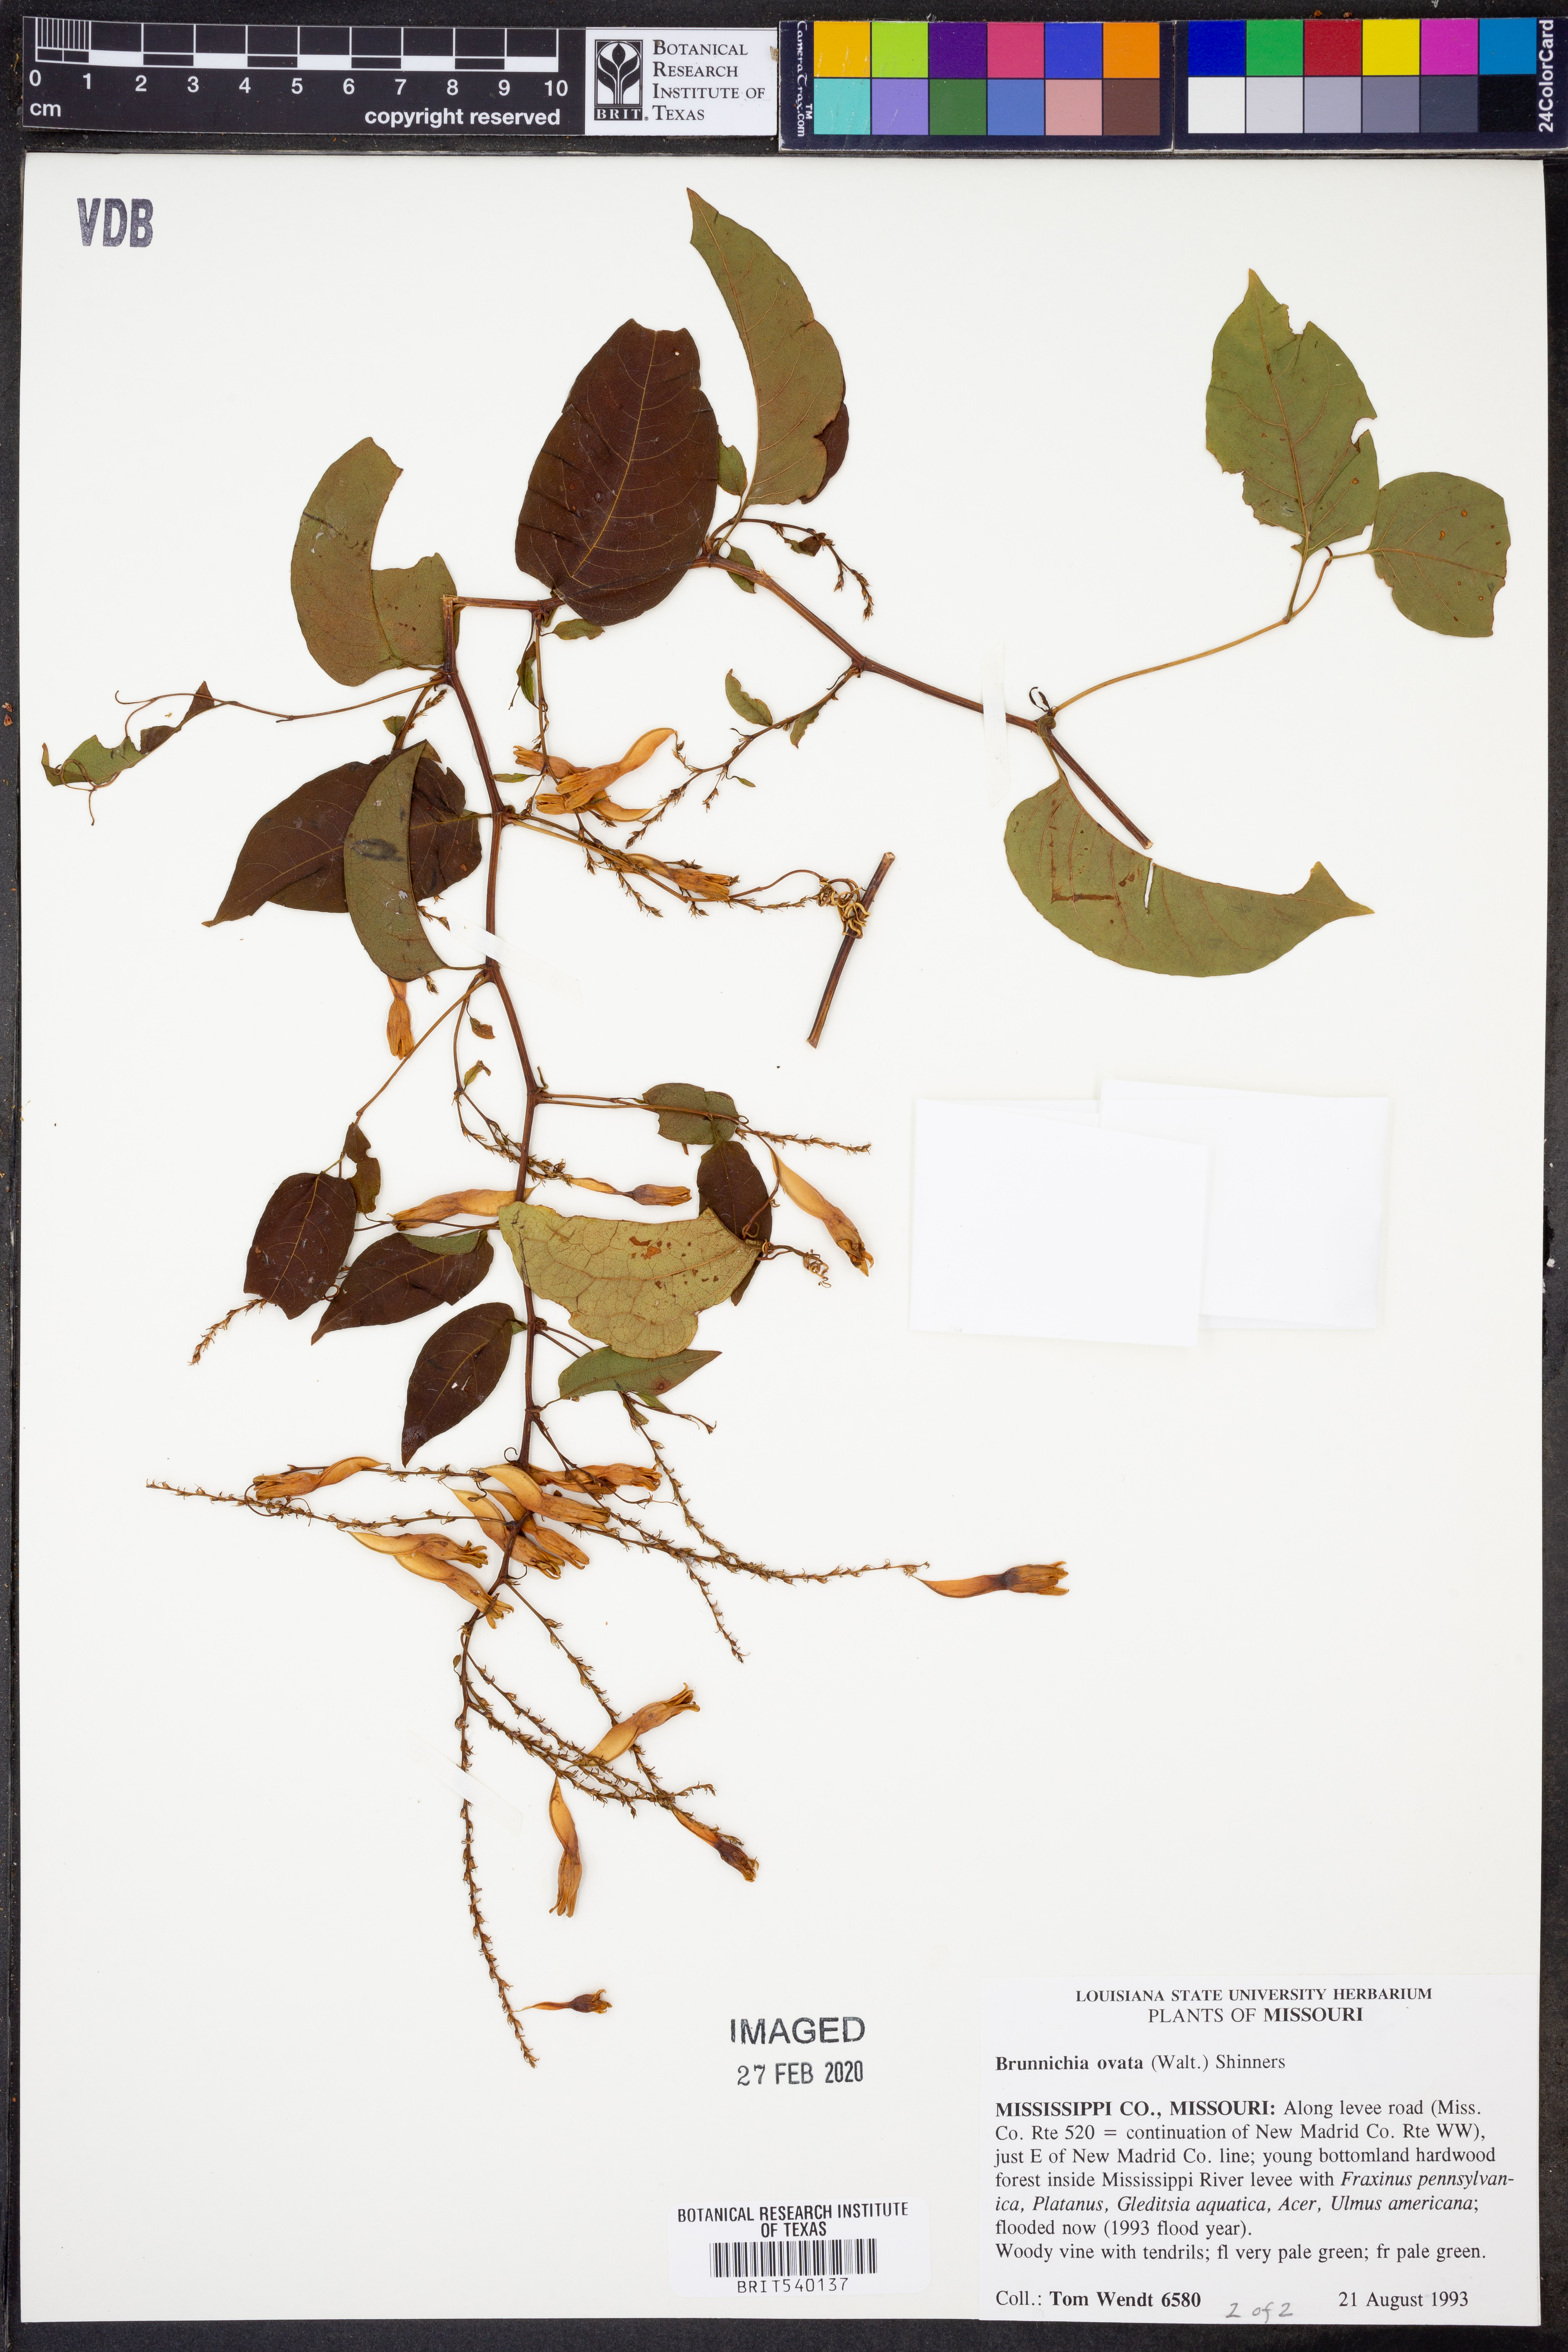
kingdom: Plantae
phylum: Tracheophyta
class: Magnoliopsida
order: Caryophyllales
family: Polygonaceae
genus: Brunnichia
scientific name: Brunnichia ovata
